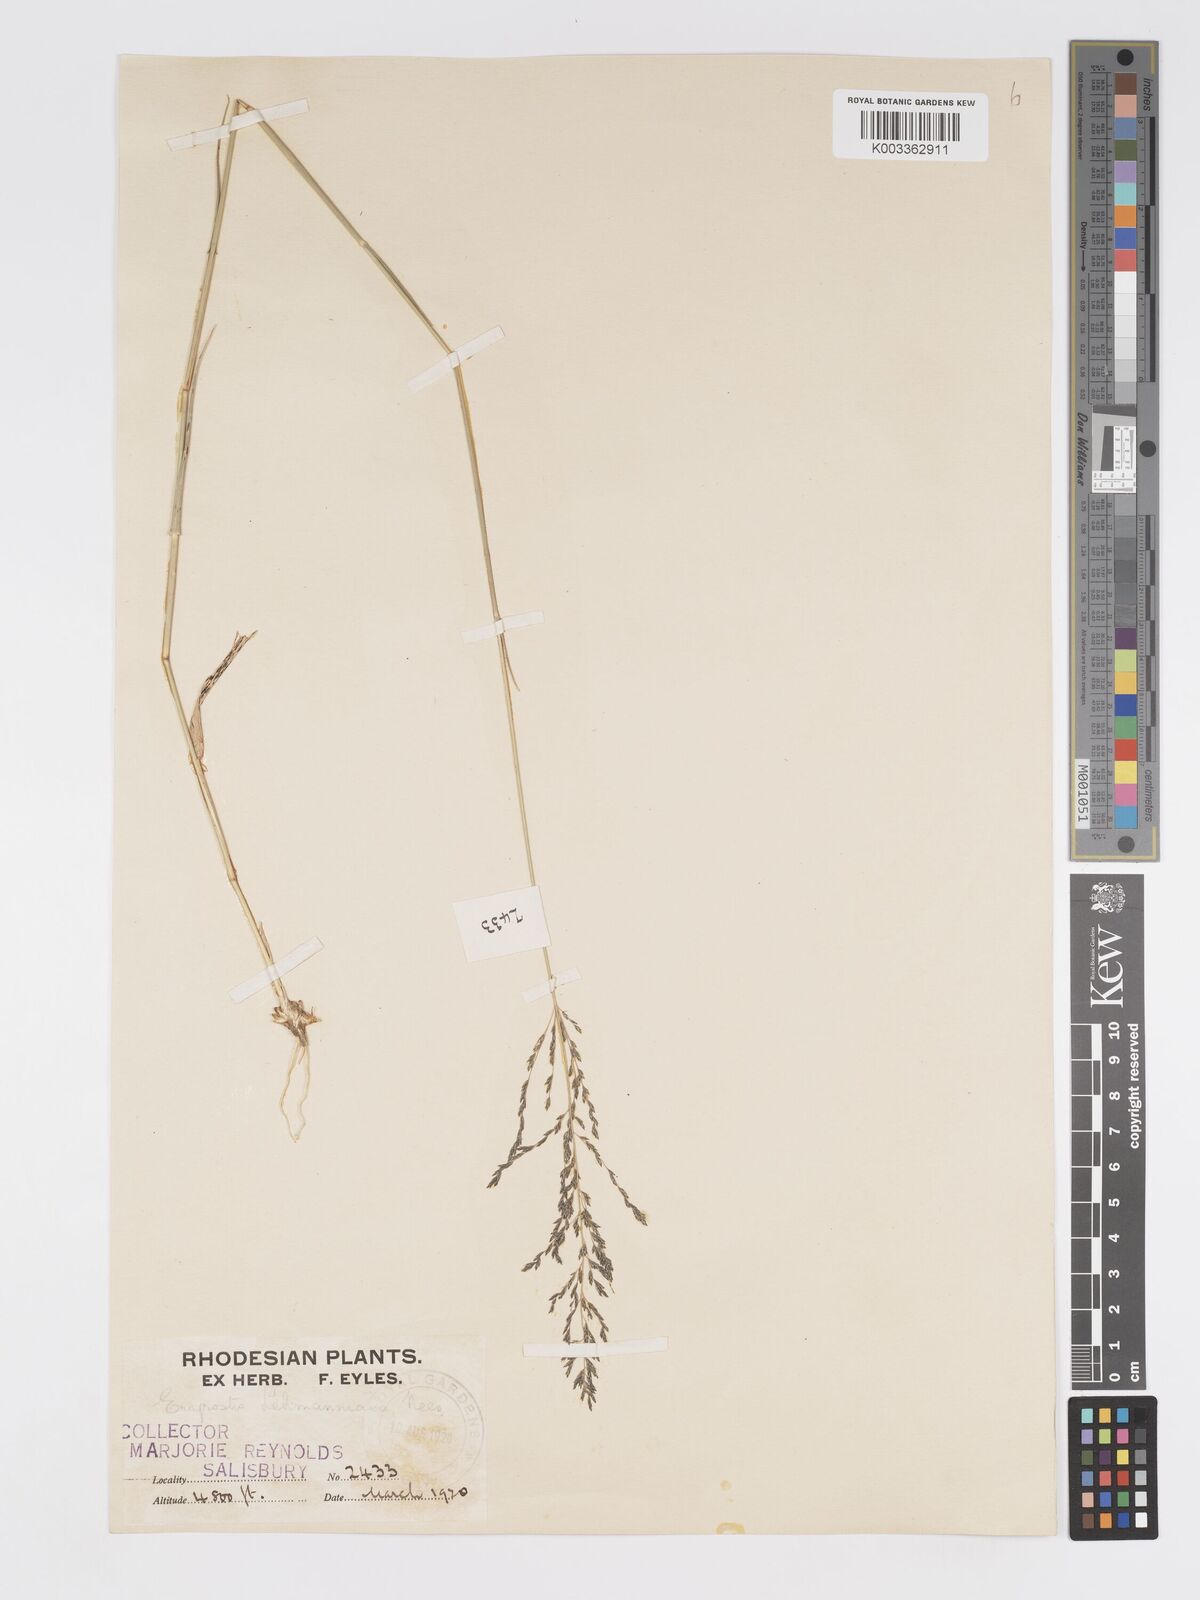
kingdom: Plantae
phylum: Tracheophyta
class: Liliopsida
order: Poales
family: Poaceae
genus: Eragrostis
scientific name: Eragrostis cylindriflora
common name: Cylinderflower lovegrass
